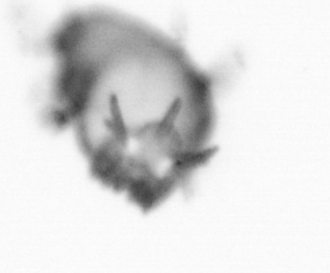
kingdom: Animalia
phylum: Annelida
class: Polychaeta
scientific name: Polychaeta
